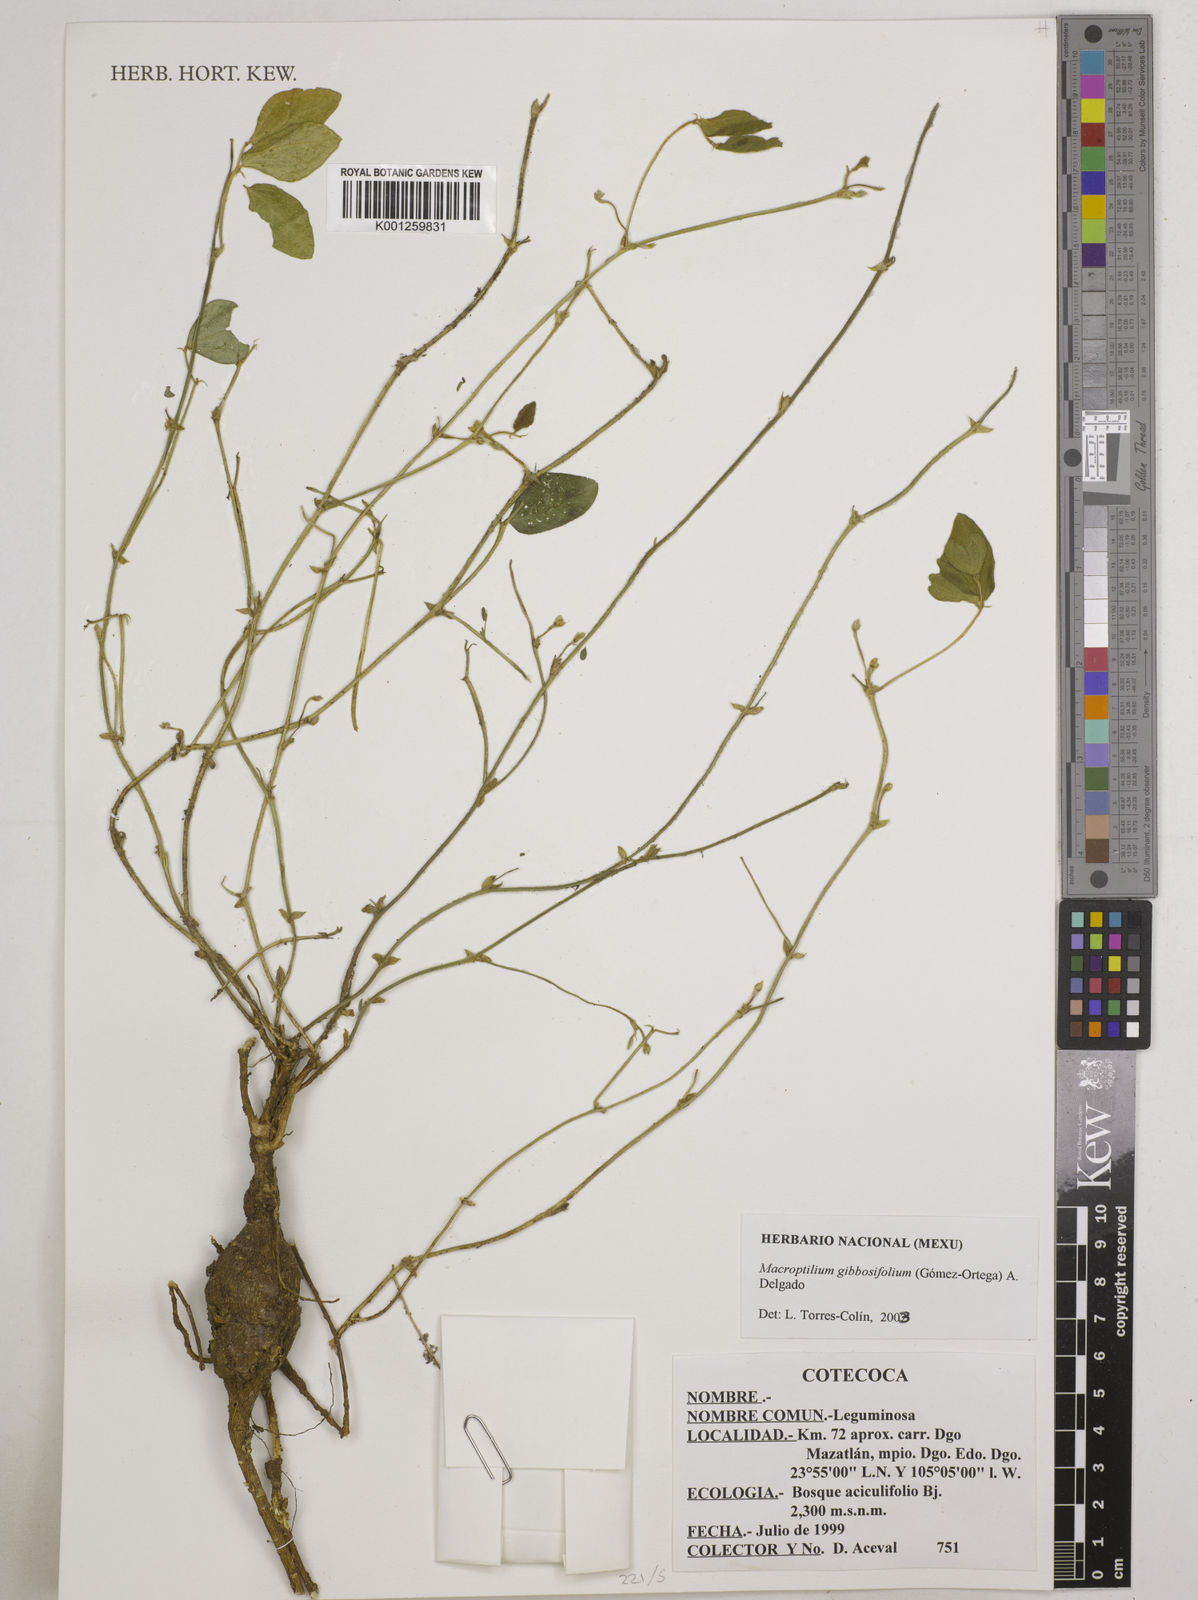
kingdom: Plantae
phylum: Tracheophyta
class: Magnoliopsida
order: Fabales
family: Fabaceae
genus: Macroptilium
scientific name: Macroptilium gibbosifolium
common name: Variableleaf bushbean
